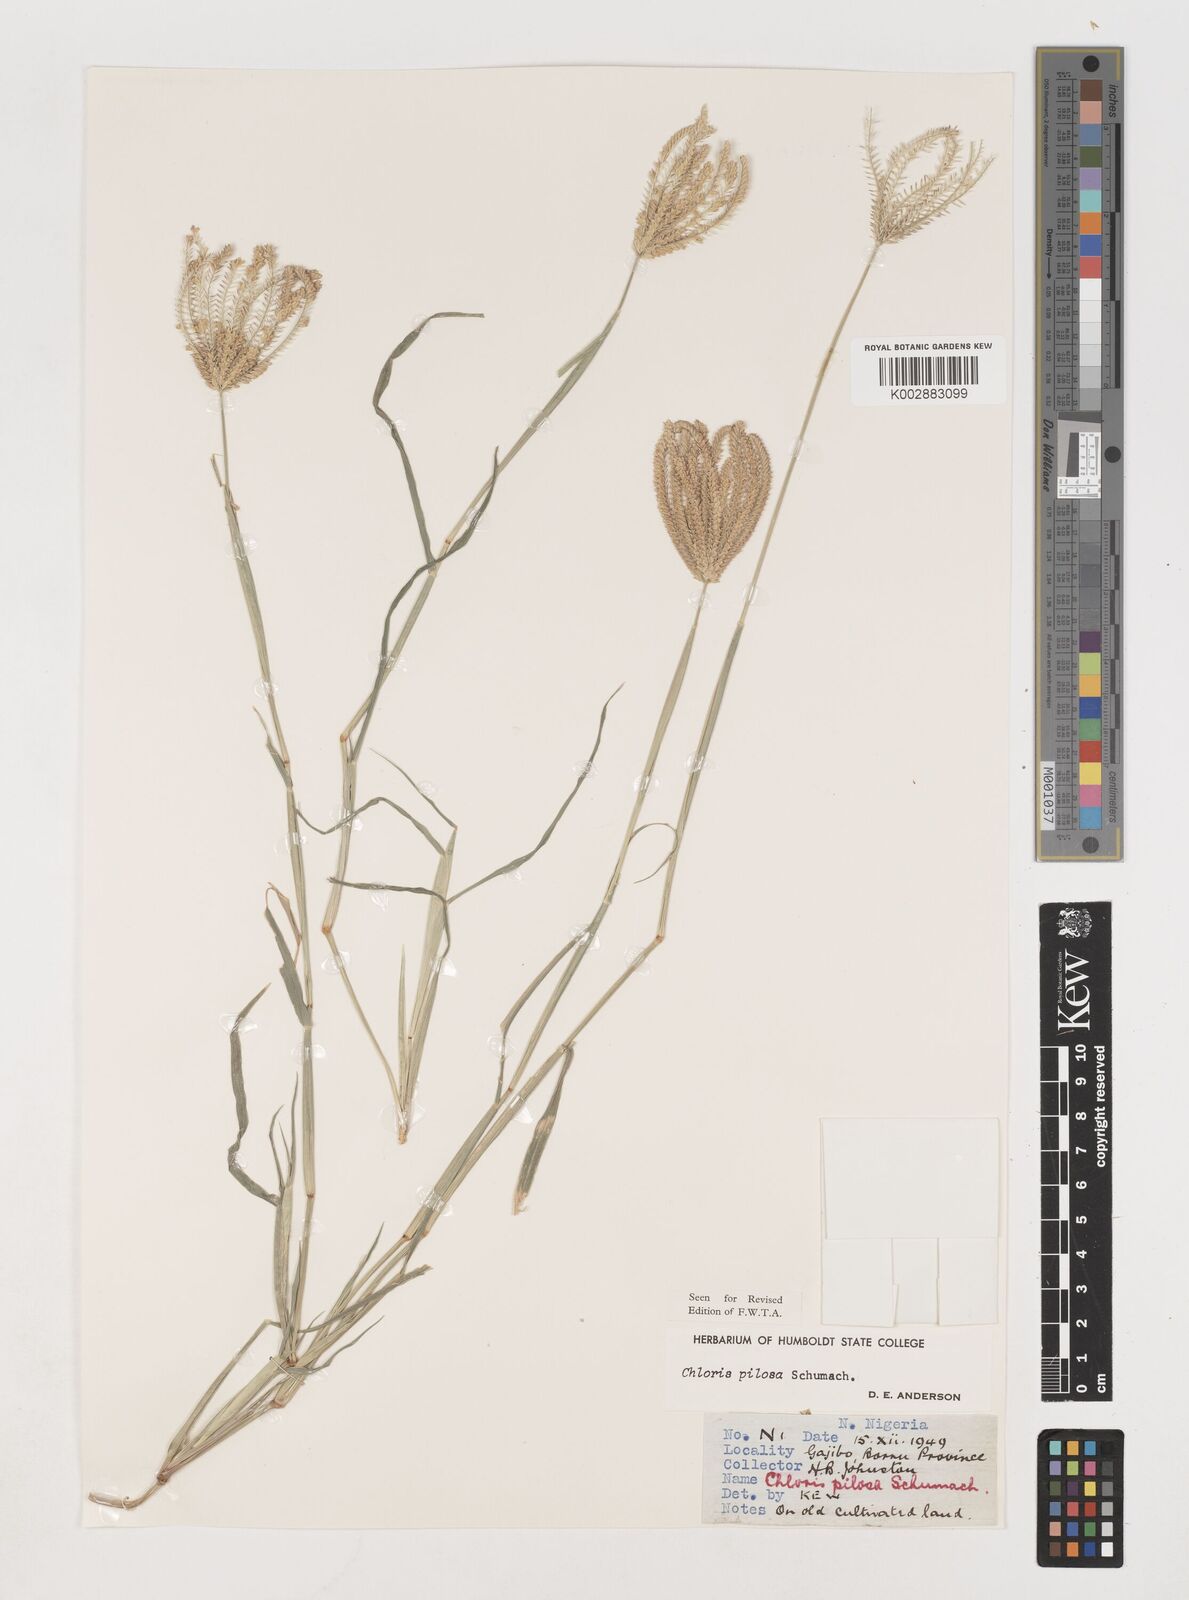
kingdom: Plantae
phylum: Tracheophyta
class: Liliopsida
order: Poales
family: Poaceae
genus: Chloris
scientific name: Chloris pilosa
